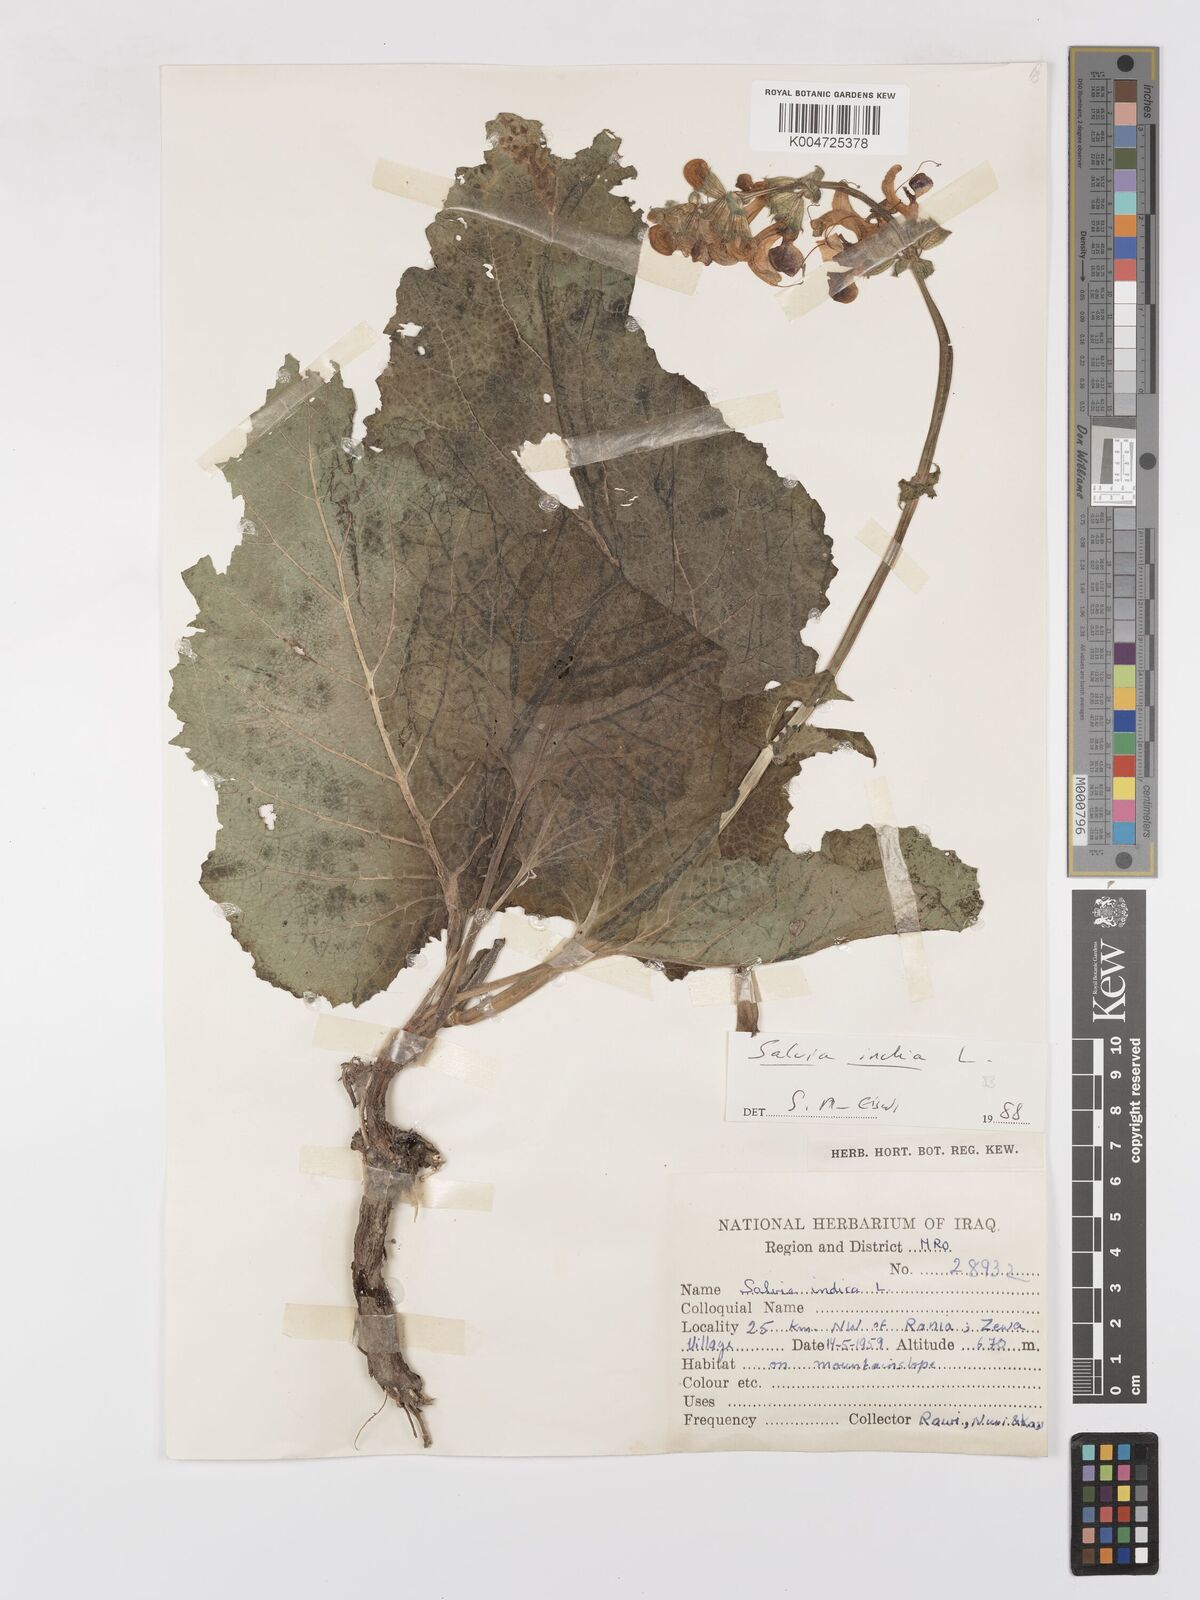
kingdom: Plantae
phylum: Tracheophyta
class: Magnoliopsida
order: Lamiales
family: Lamiaceae
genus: Salvia
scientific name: Salvia indica
